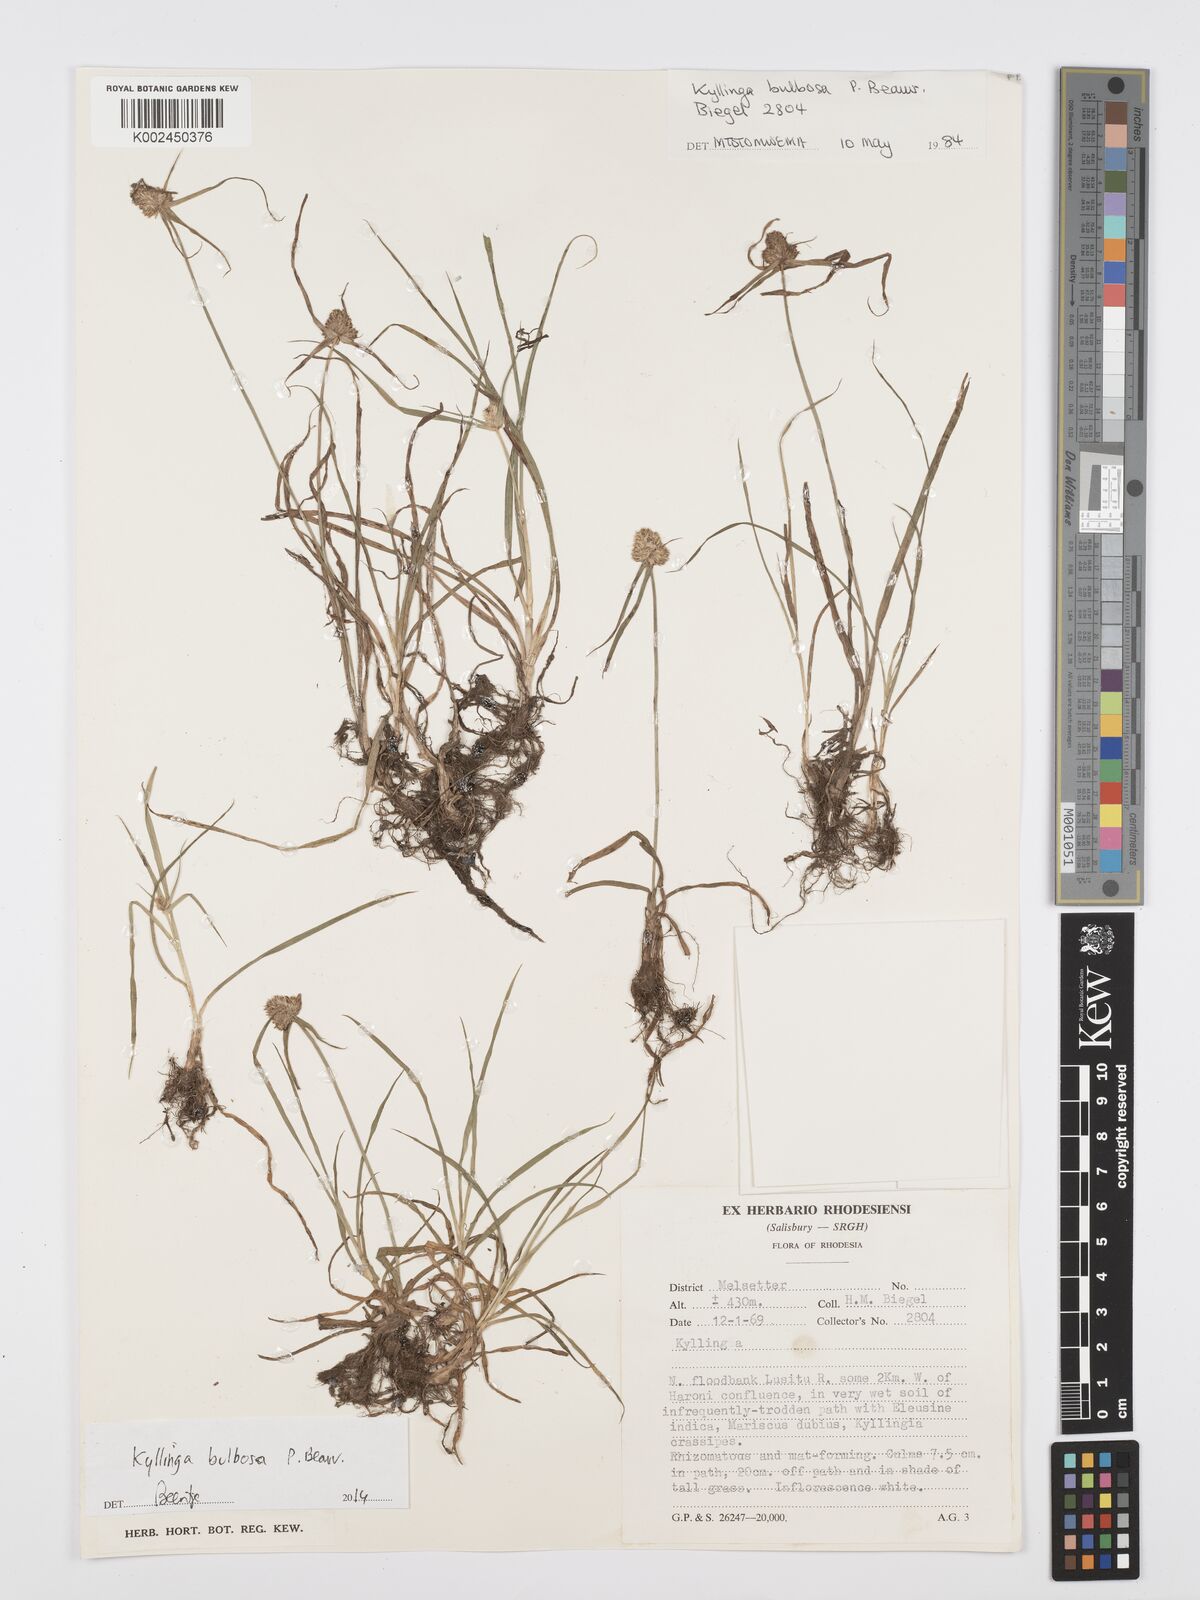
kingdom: Plantae
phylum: Tracheophyta
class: Liliopsida
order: Poales
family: Cyperaceae
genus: Cyperus
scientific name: Cyperus
